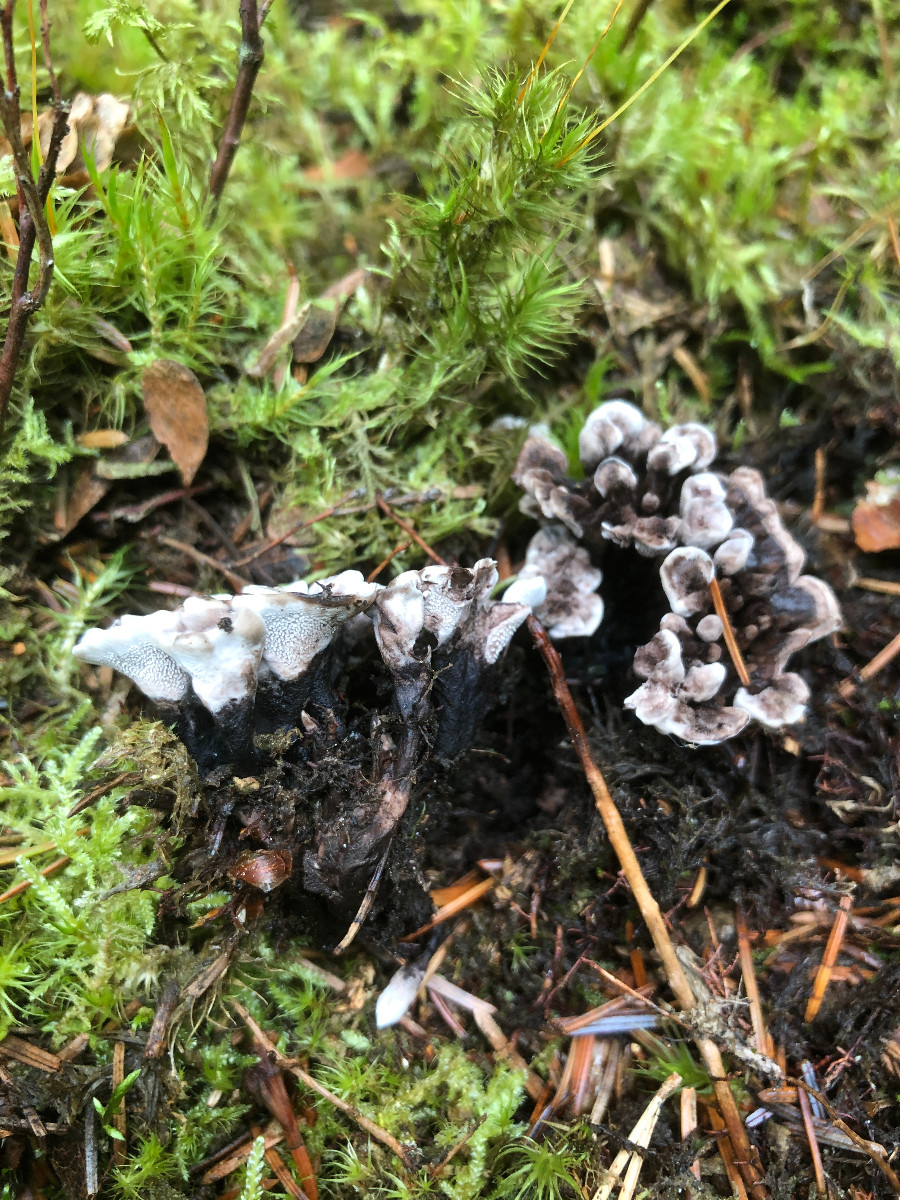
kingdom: Fungi
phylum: Basidiomycota
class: Agaricomycetes
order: Thelephorales
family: Thelephoraceae
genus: Phellodon
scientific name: Phellodon tomentosus
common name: vellugtende duftpigsvamp
